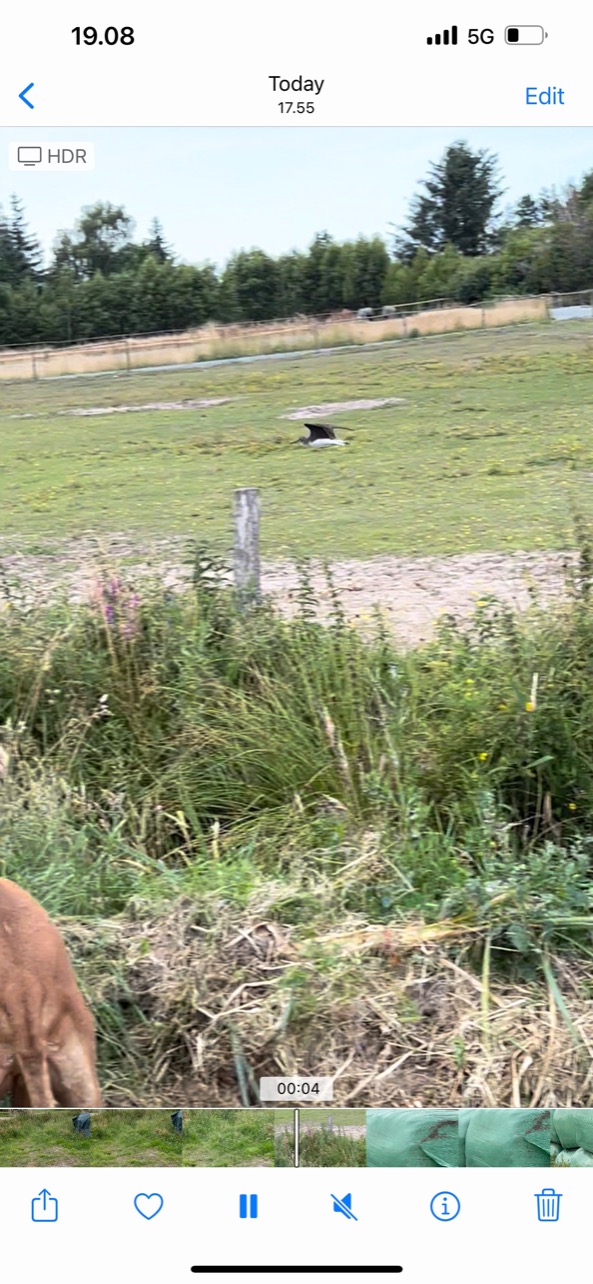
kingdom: Animalia
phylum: Chordata
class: Aves
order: Charadriiformes
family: Scolopacidae
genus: Tringa
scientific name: Tringa ochropus
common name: Svaleklire
